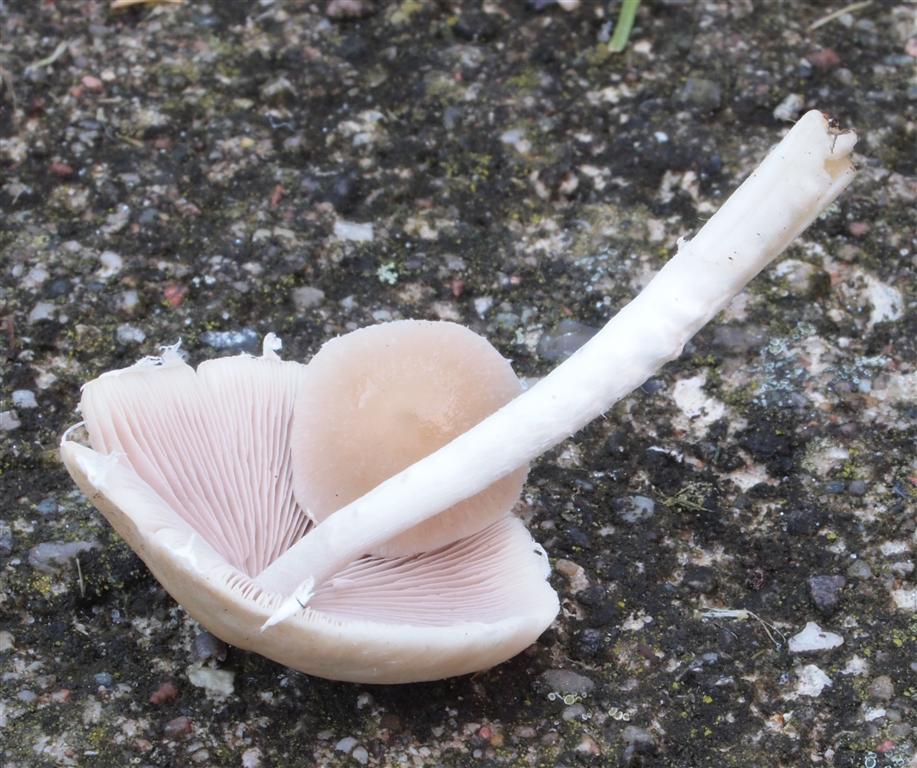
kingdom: Fungi
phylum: Basidiomycota
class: Agaricomycetes
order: Agaricales
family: Psathyrellaceae
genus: Candolleomyces
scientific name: Candolleomyces candolleanus
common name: Candolles mørkhat
